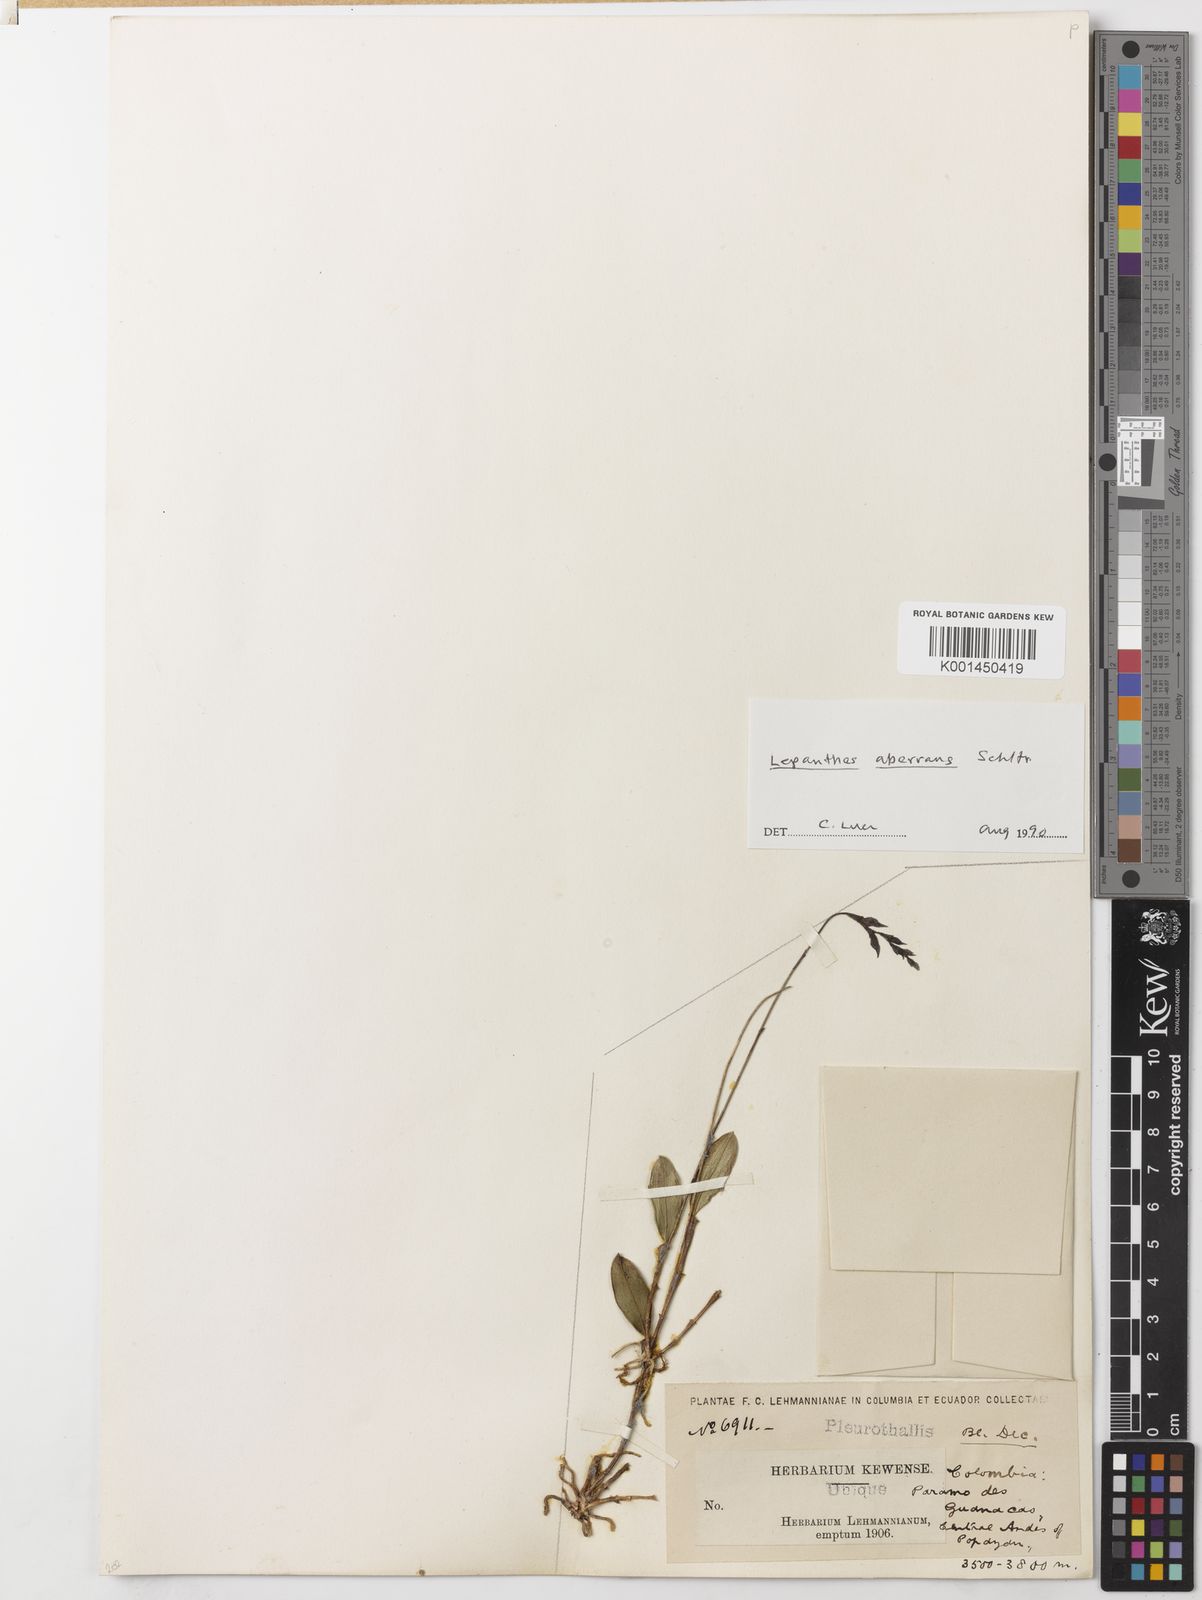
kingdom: Plantae
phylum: Tracheophyta
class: Liliopsida
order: Asparagales
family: Orchidaceae
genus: Draconanthes
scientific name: Draconanthes aberrans
